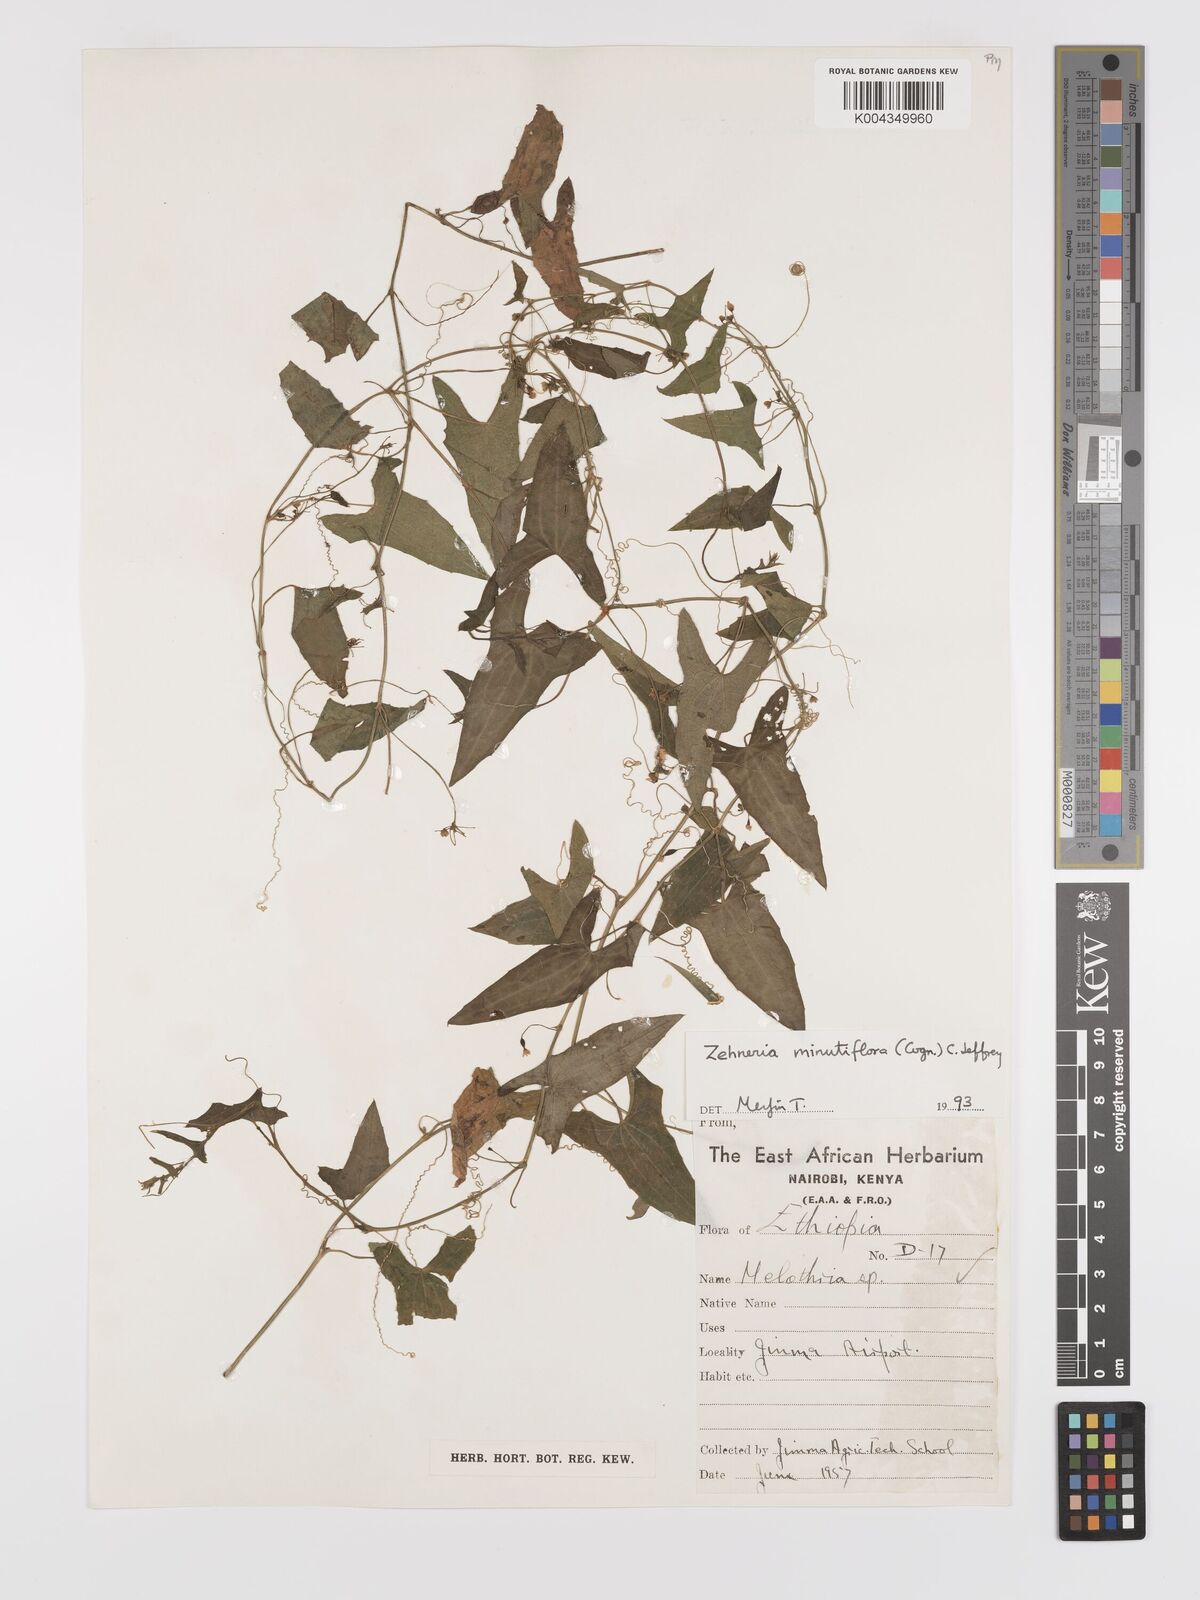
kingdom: Plantae
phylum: Tracheophyta
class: Magnoliopsida
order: Cucurbitales
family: Cucurbitaceae
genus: Zehneria
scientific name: Zehneria minutiflora
